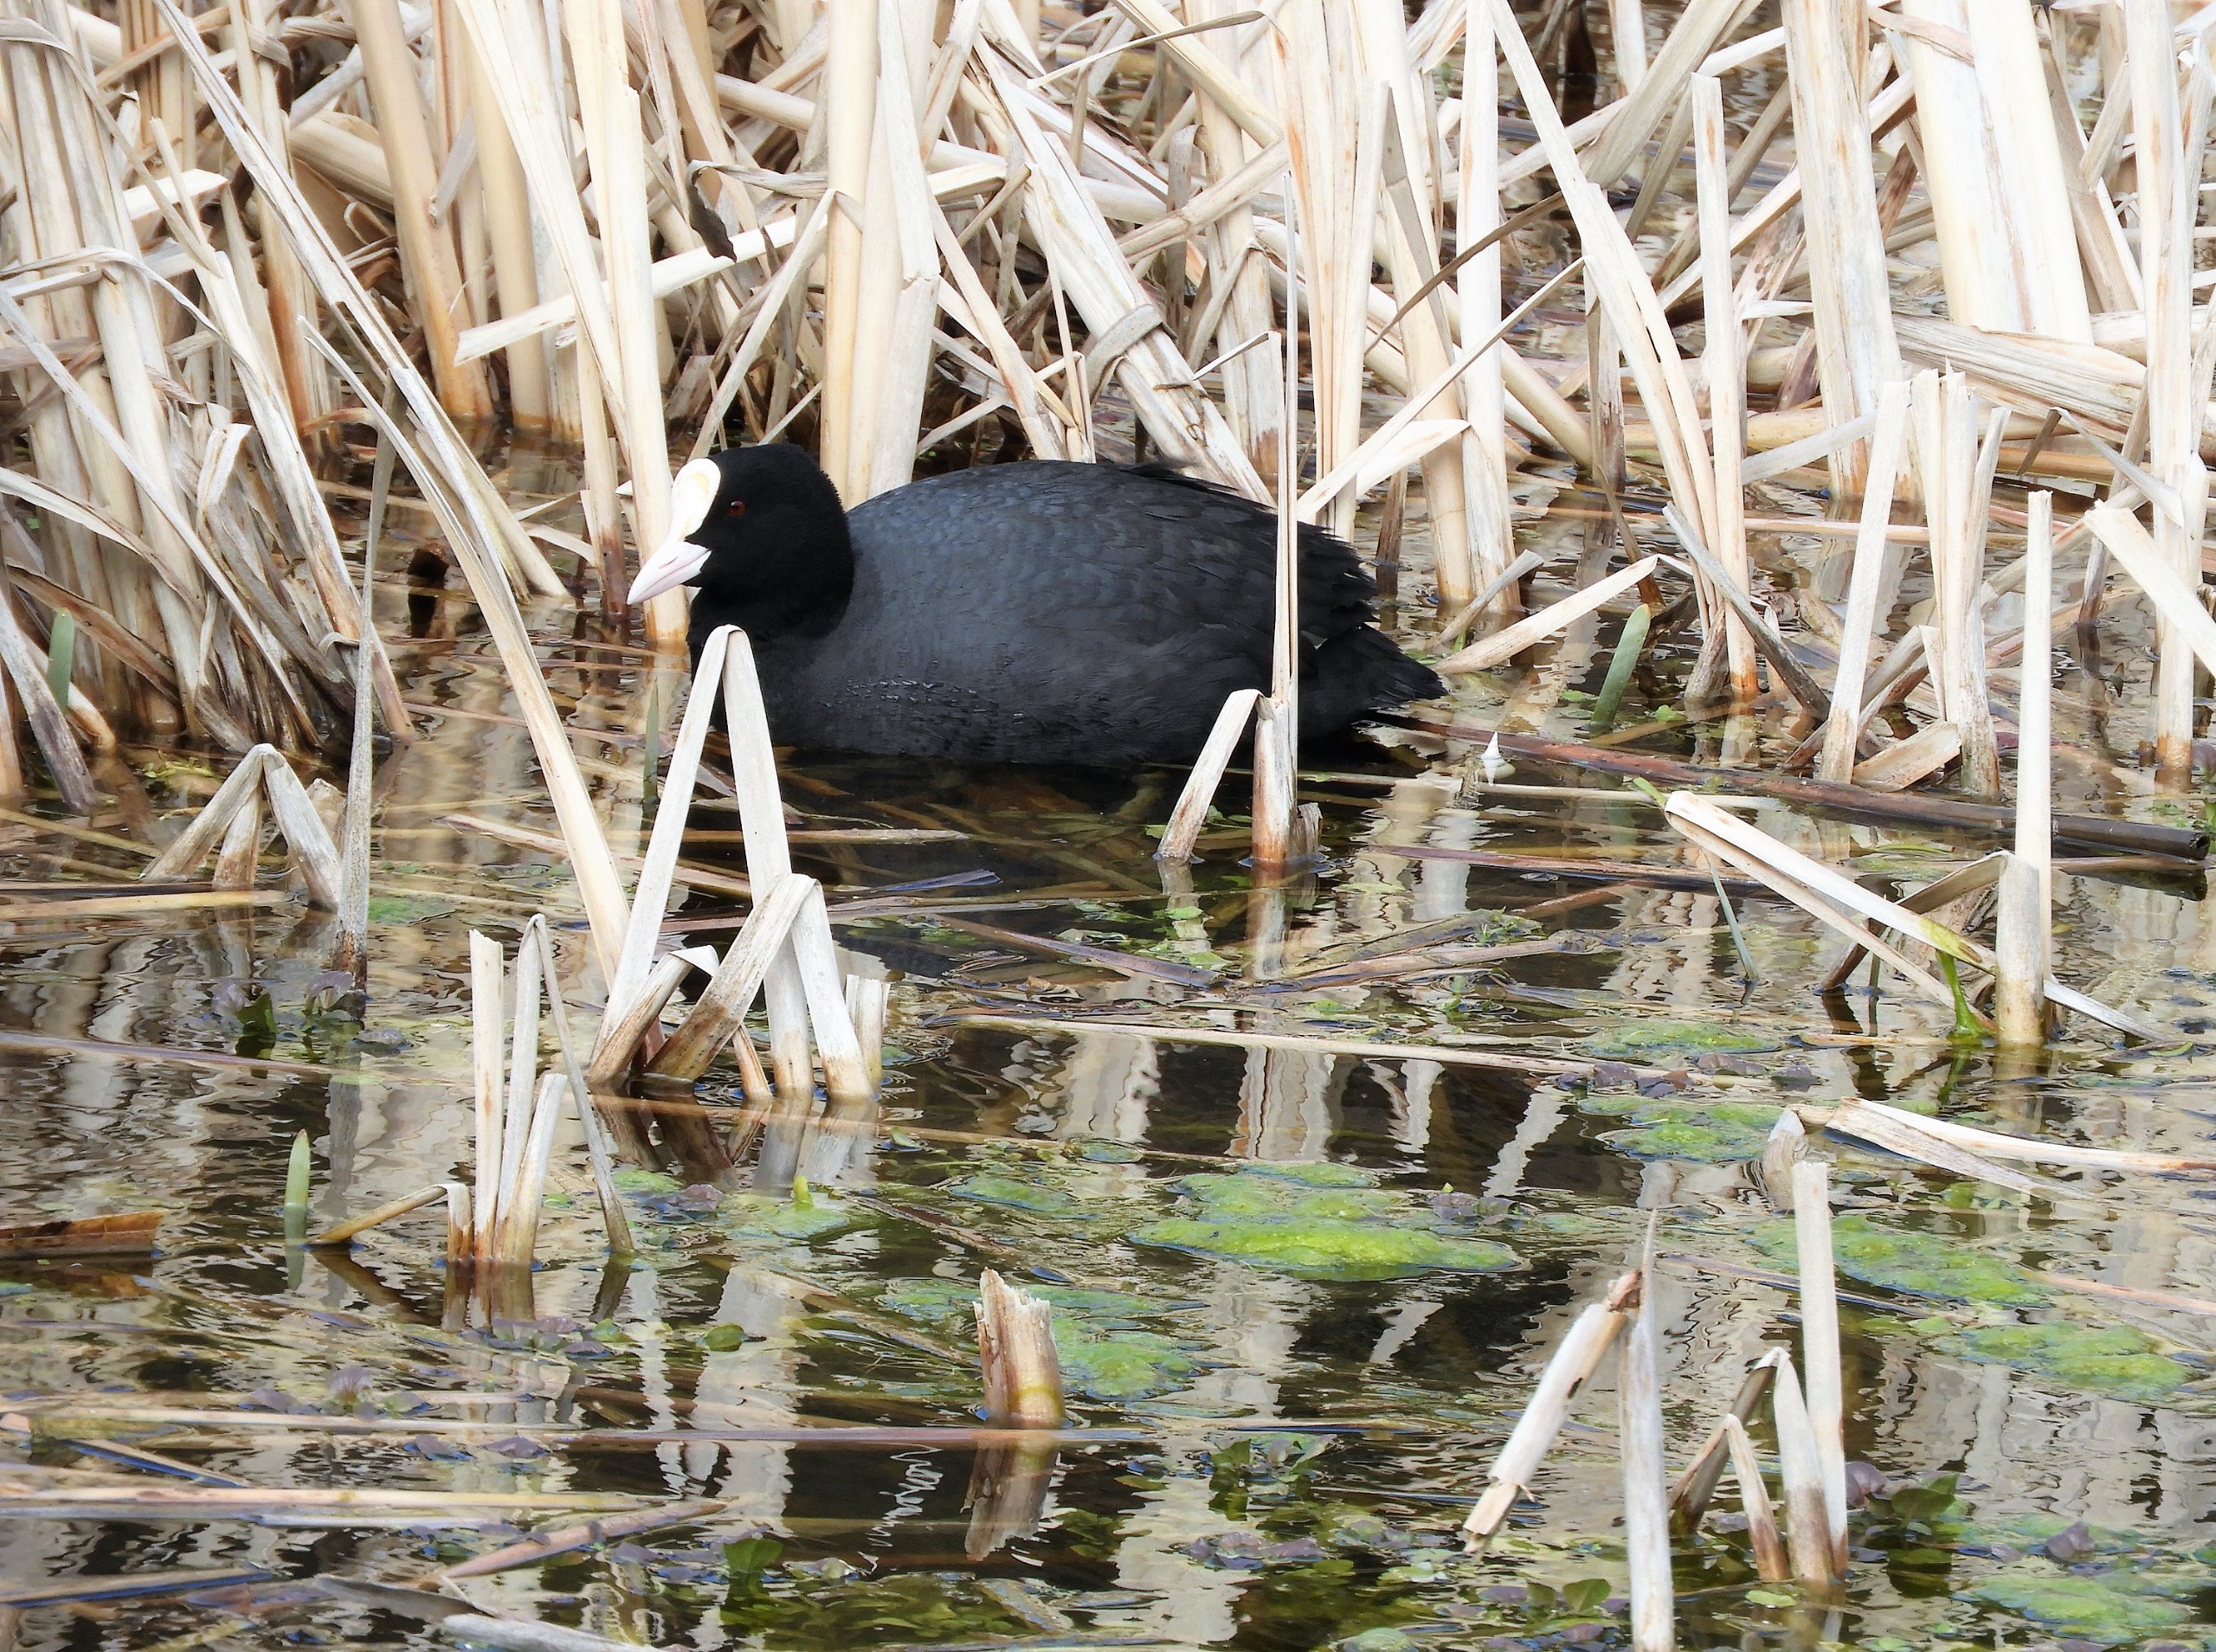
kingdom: Animalia
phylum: Chordata
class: Aves
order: Gruiformes
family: Rallidae
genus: Fulica
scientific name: Fulica atra
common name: Blishøne
